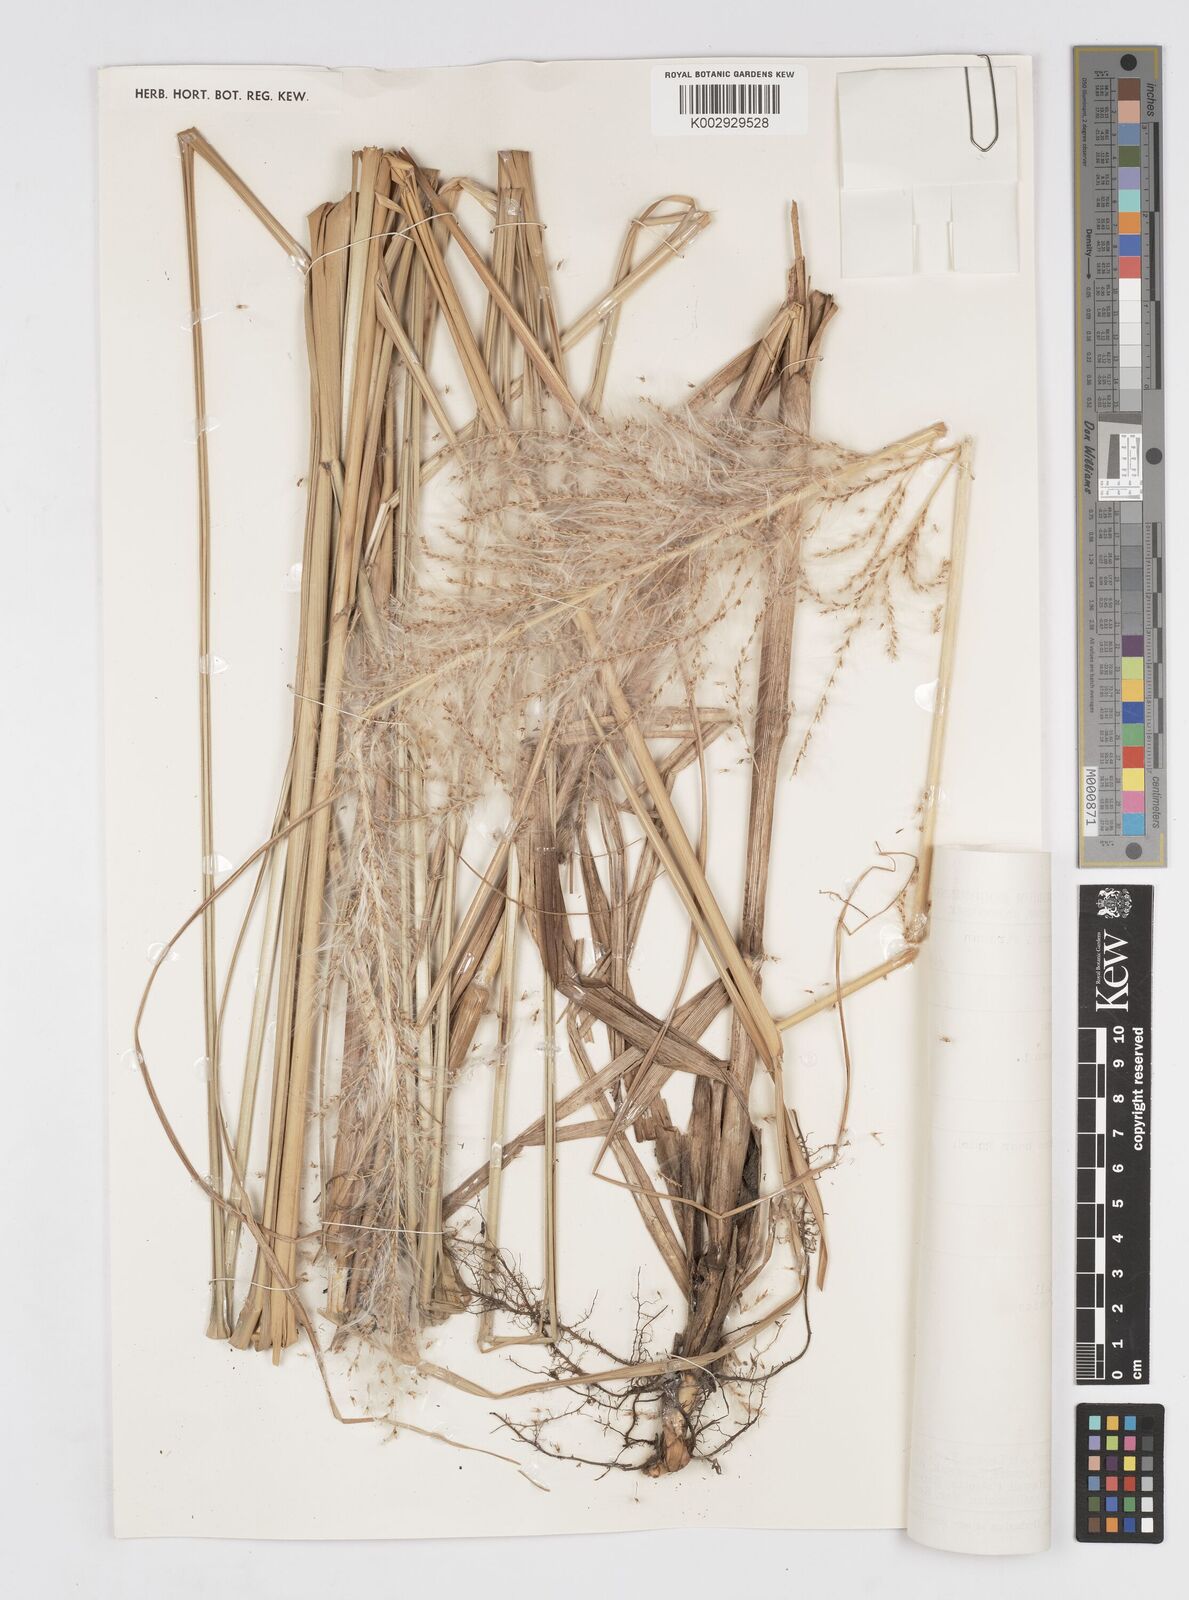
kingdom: Plantae
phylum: Tracheophyta
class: Liliopsida
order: Poales
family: Poaceae
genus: Saccharum
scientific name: Saccharum spontaneum
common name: Wild sugarcane
